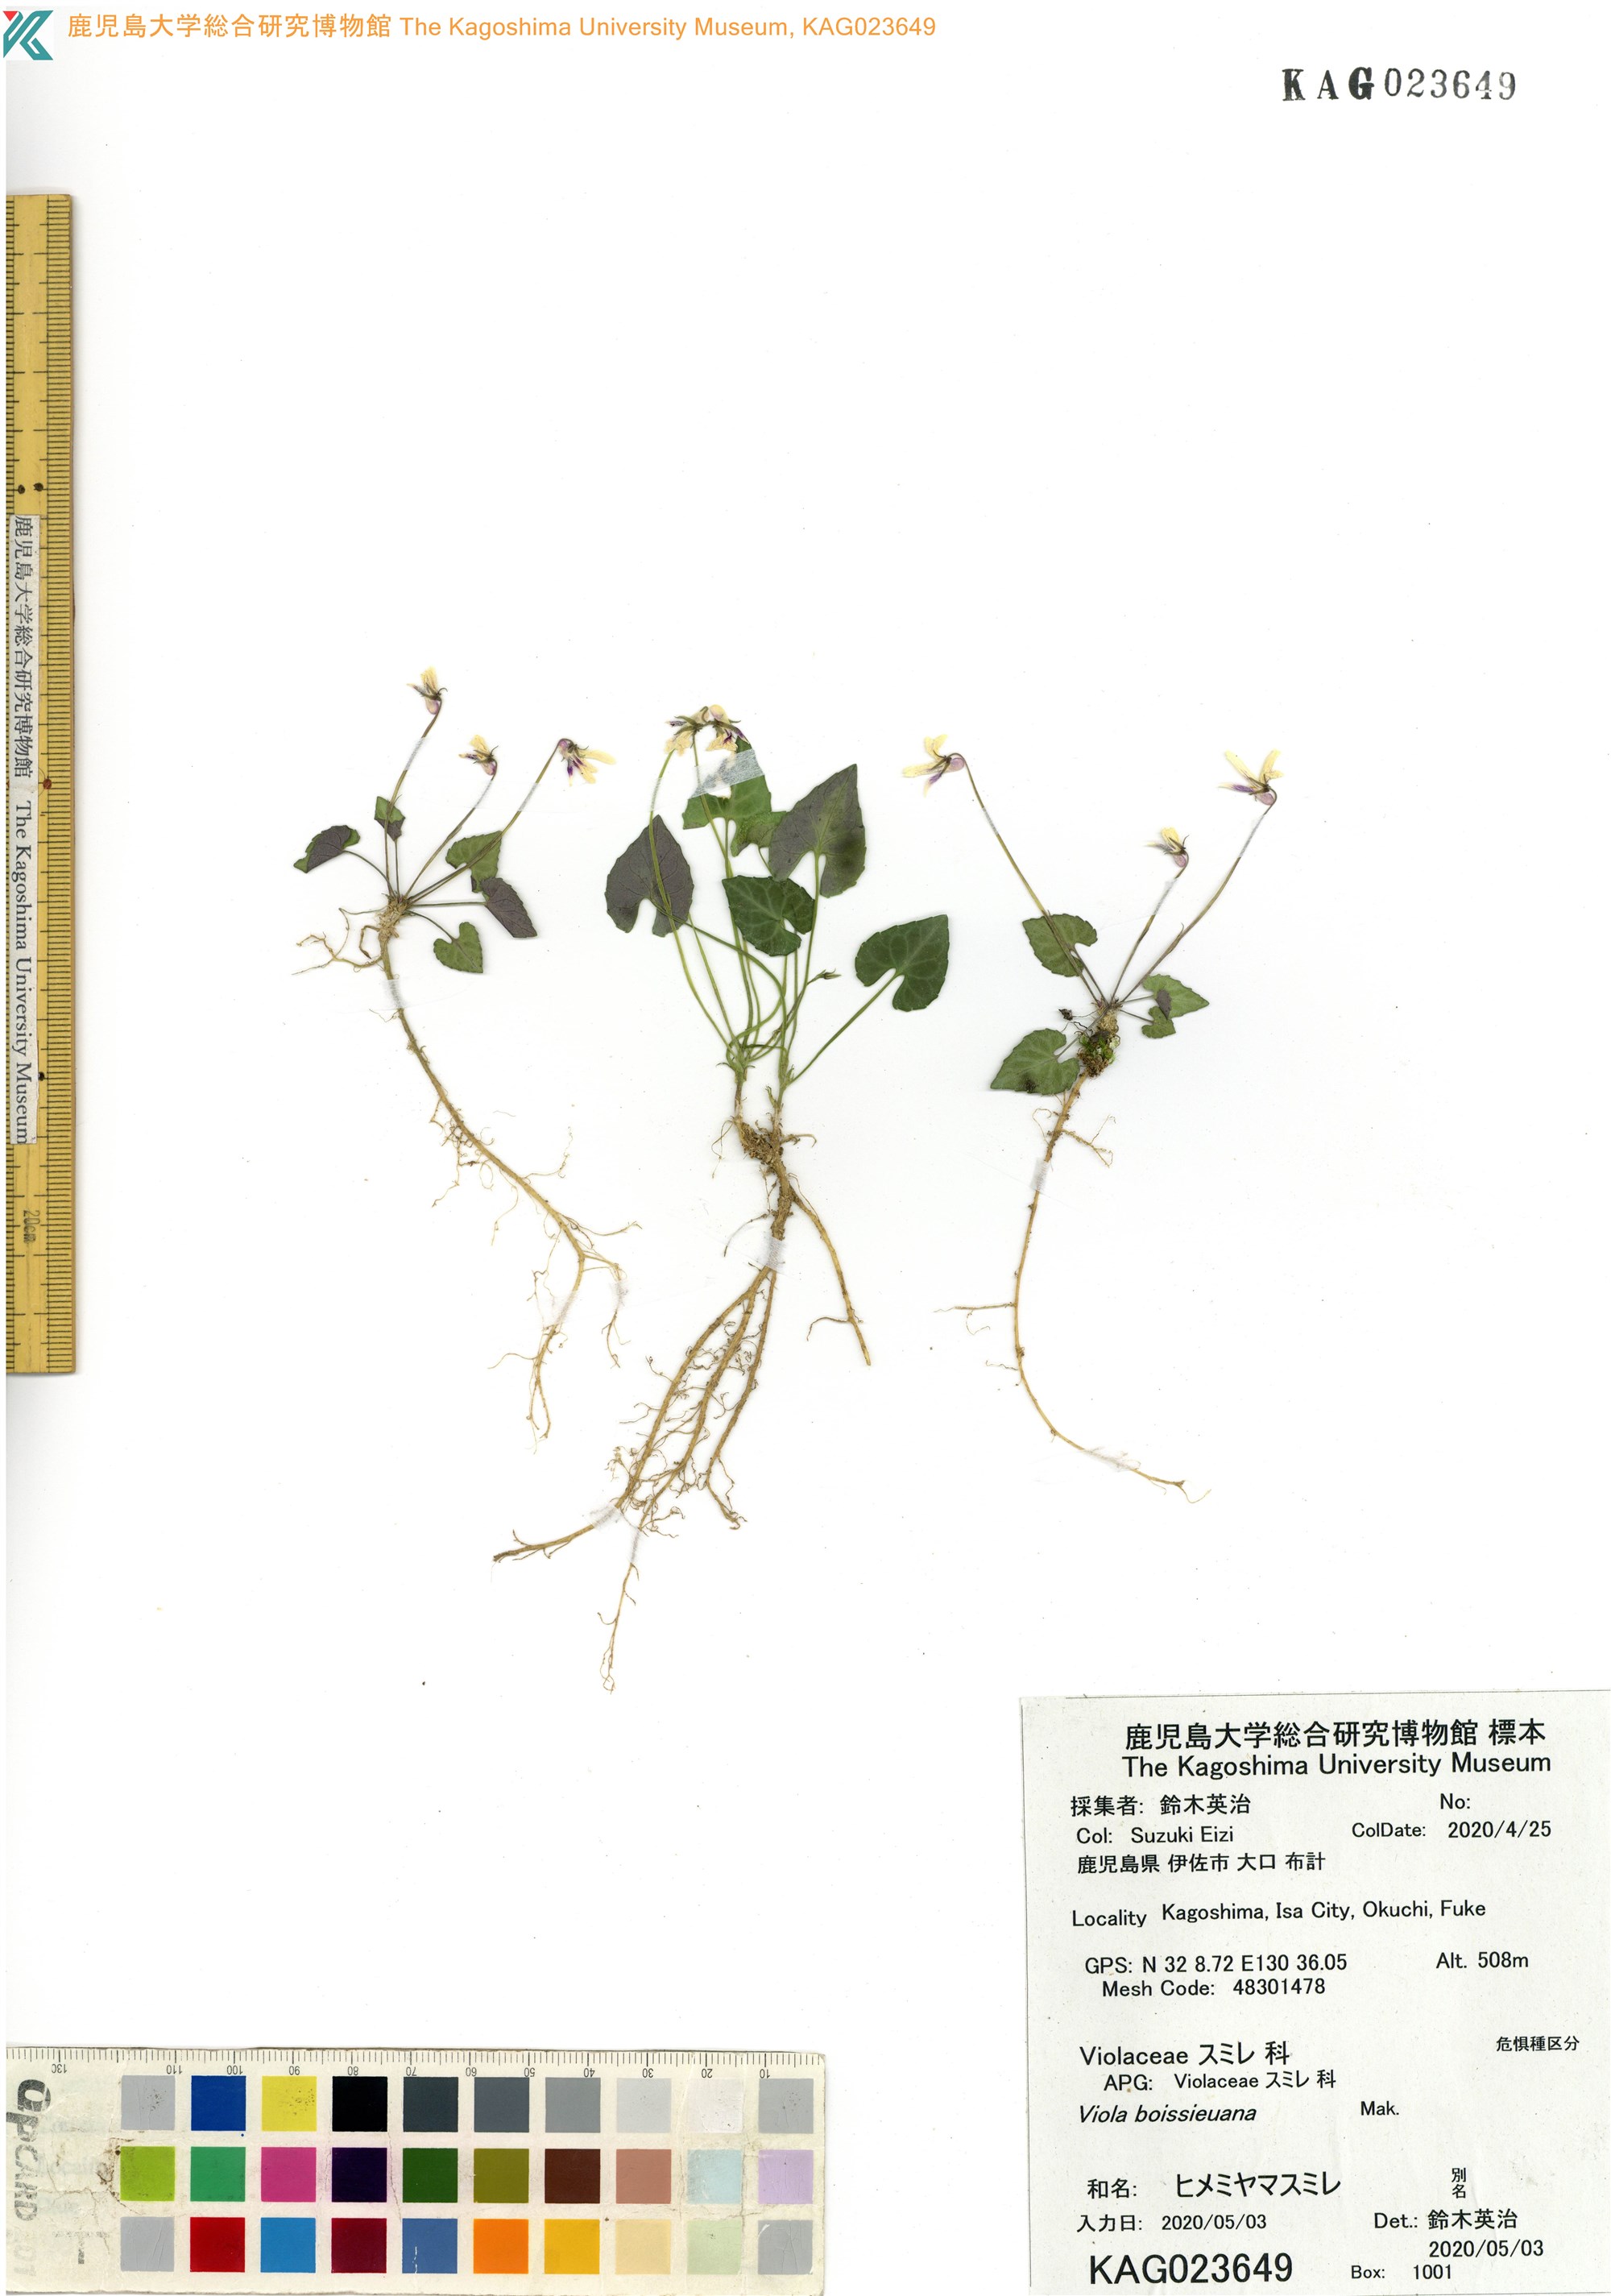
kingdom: Plantae
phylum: Tracheophyta
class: Magnoliopsida
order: Malpighiales
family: Violaceae
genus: Viola
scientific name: Viola boissieuana
